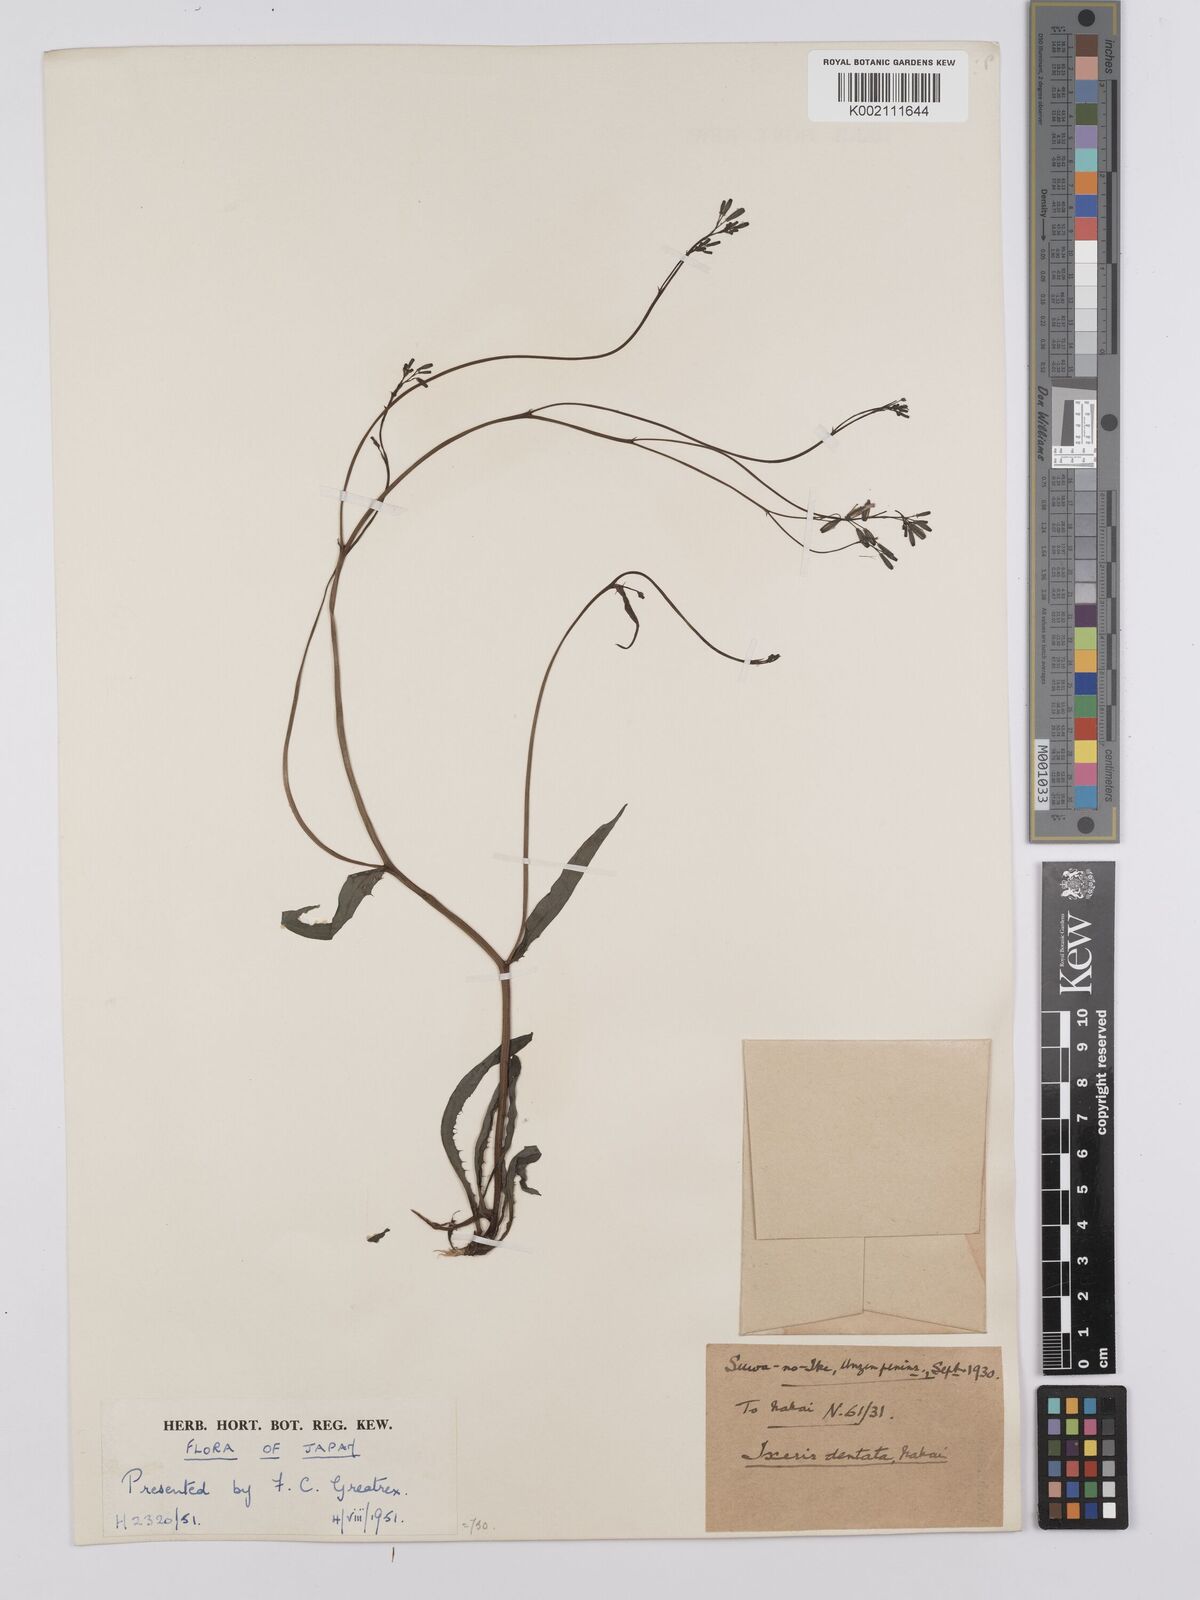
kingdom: Plantae
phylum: Tracheophyta
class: Magnoliopsida
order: Asterales
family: Asteraceae
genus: Ixeridium
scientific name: Ixeridium dentatum
